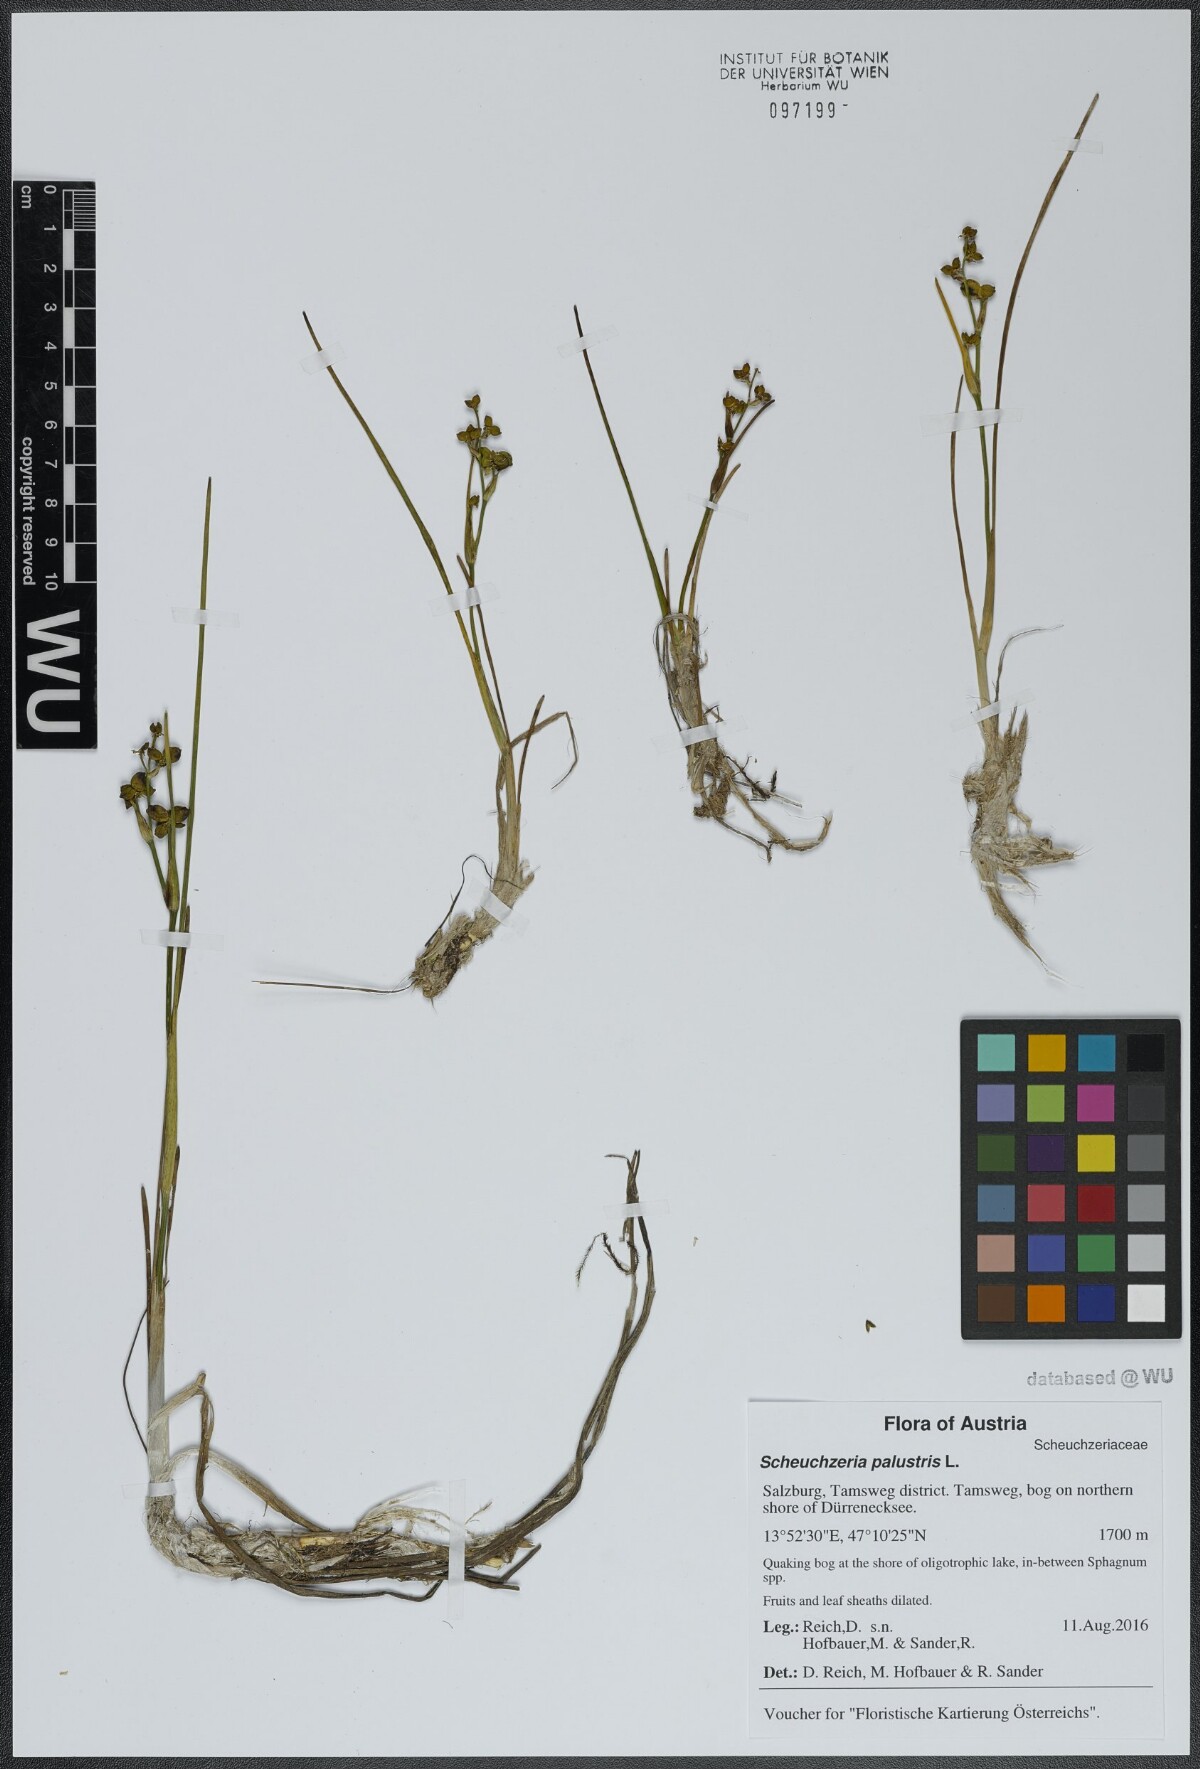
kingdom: Plantae
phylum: Tracheophyta
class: Liliopsida
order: Alismatales
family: Scheuchzeriaceae
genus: Scheuchzeria
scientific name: Scheuchzeria palustris
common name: Rannoch-rush
